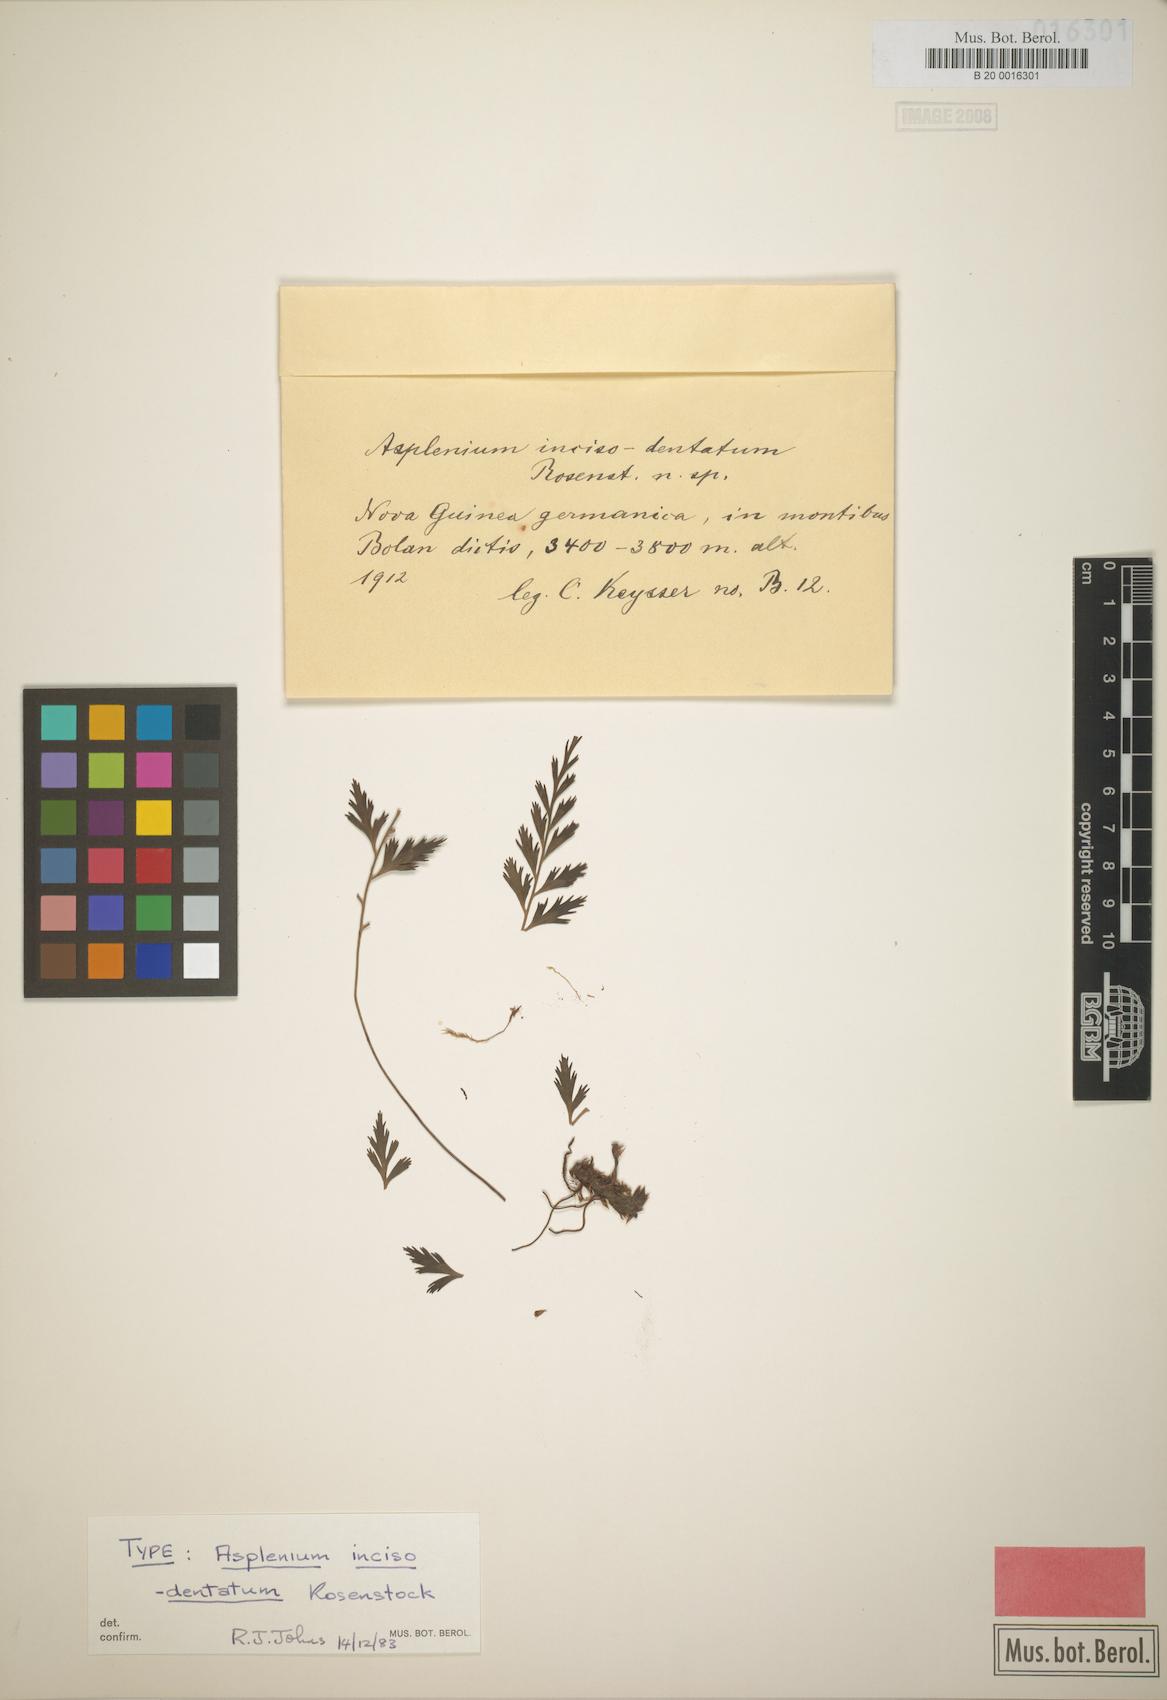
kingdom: Plantae
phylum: Tracheophyta
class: Polypodiopsida
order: Polypodiales
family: Aspleniaceae
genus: Asplenium
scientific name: Asplenium setisectum
